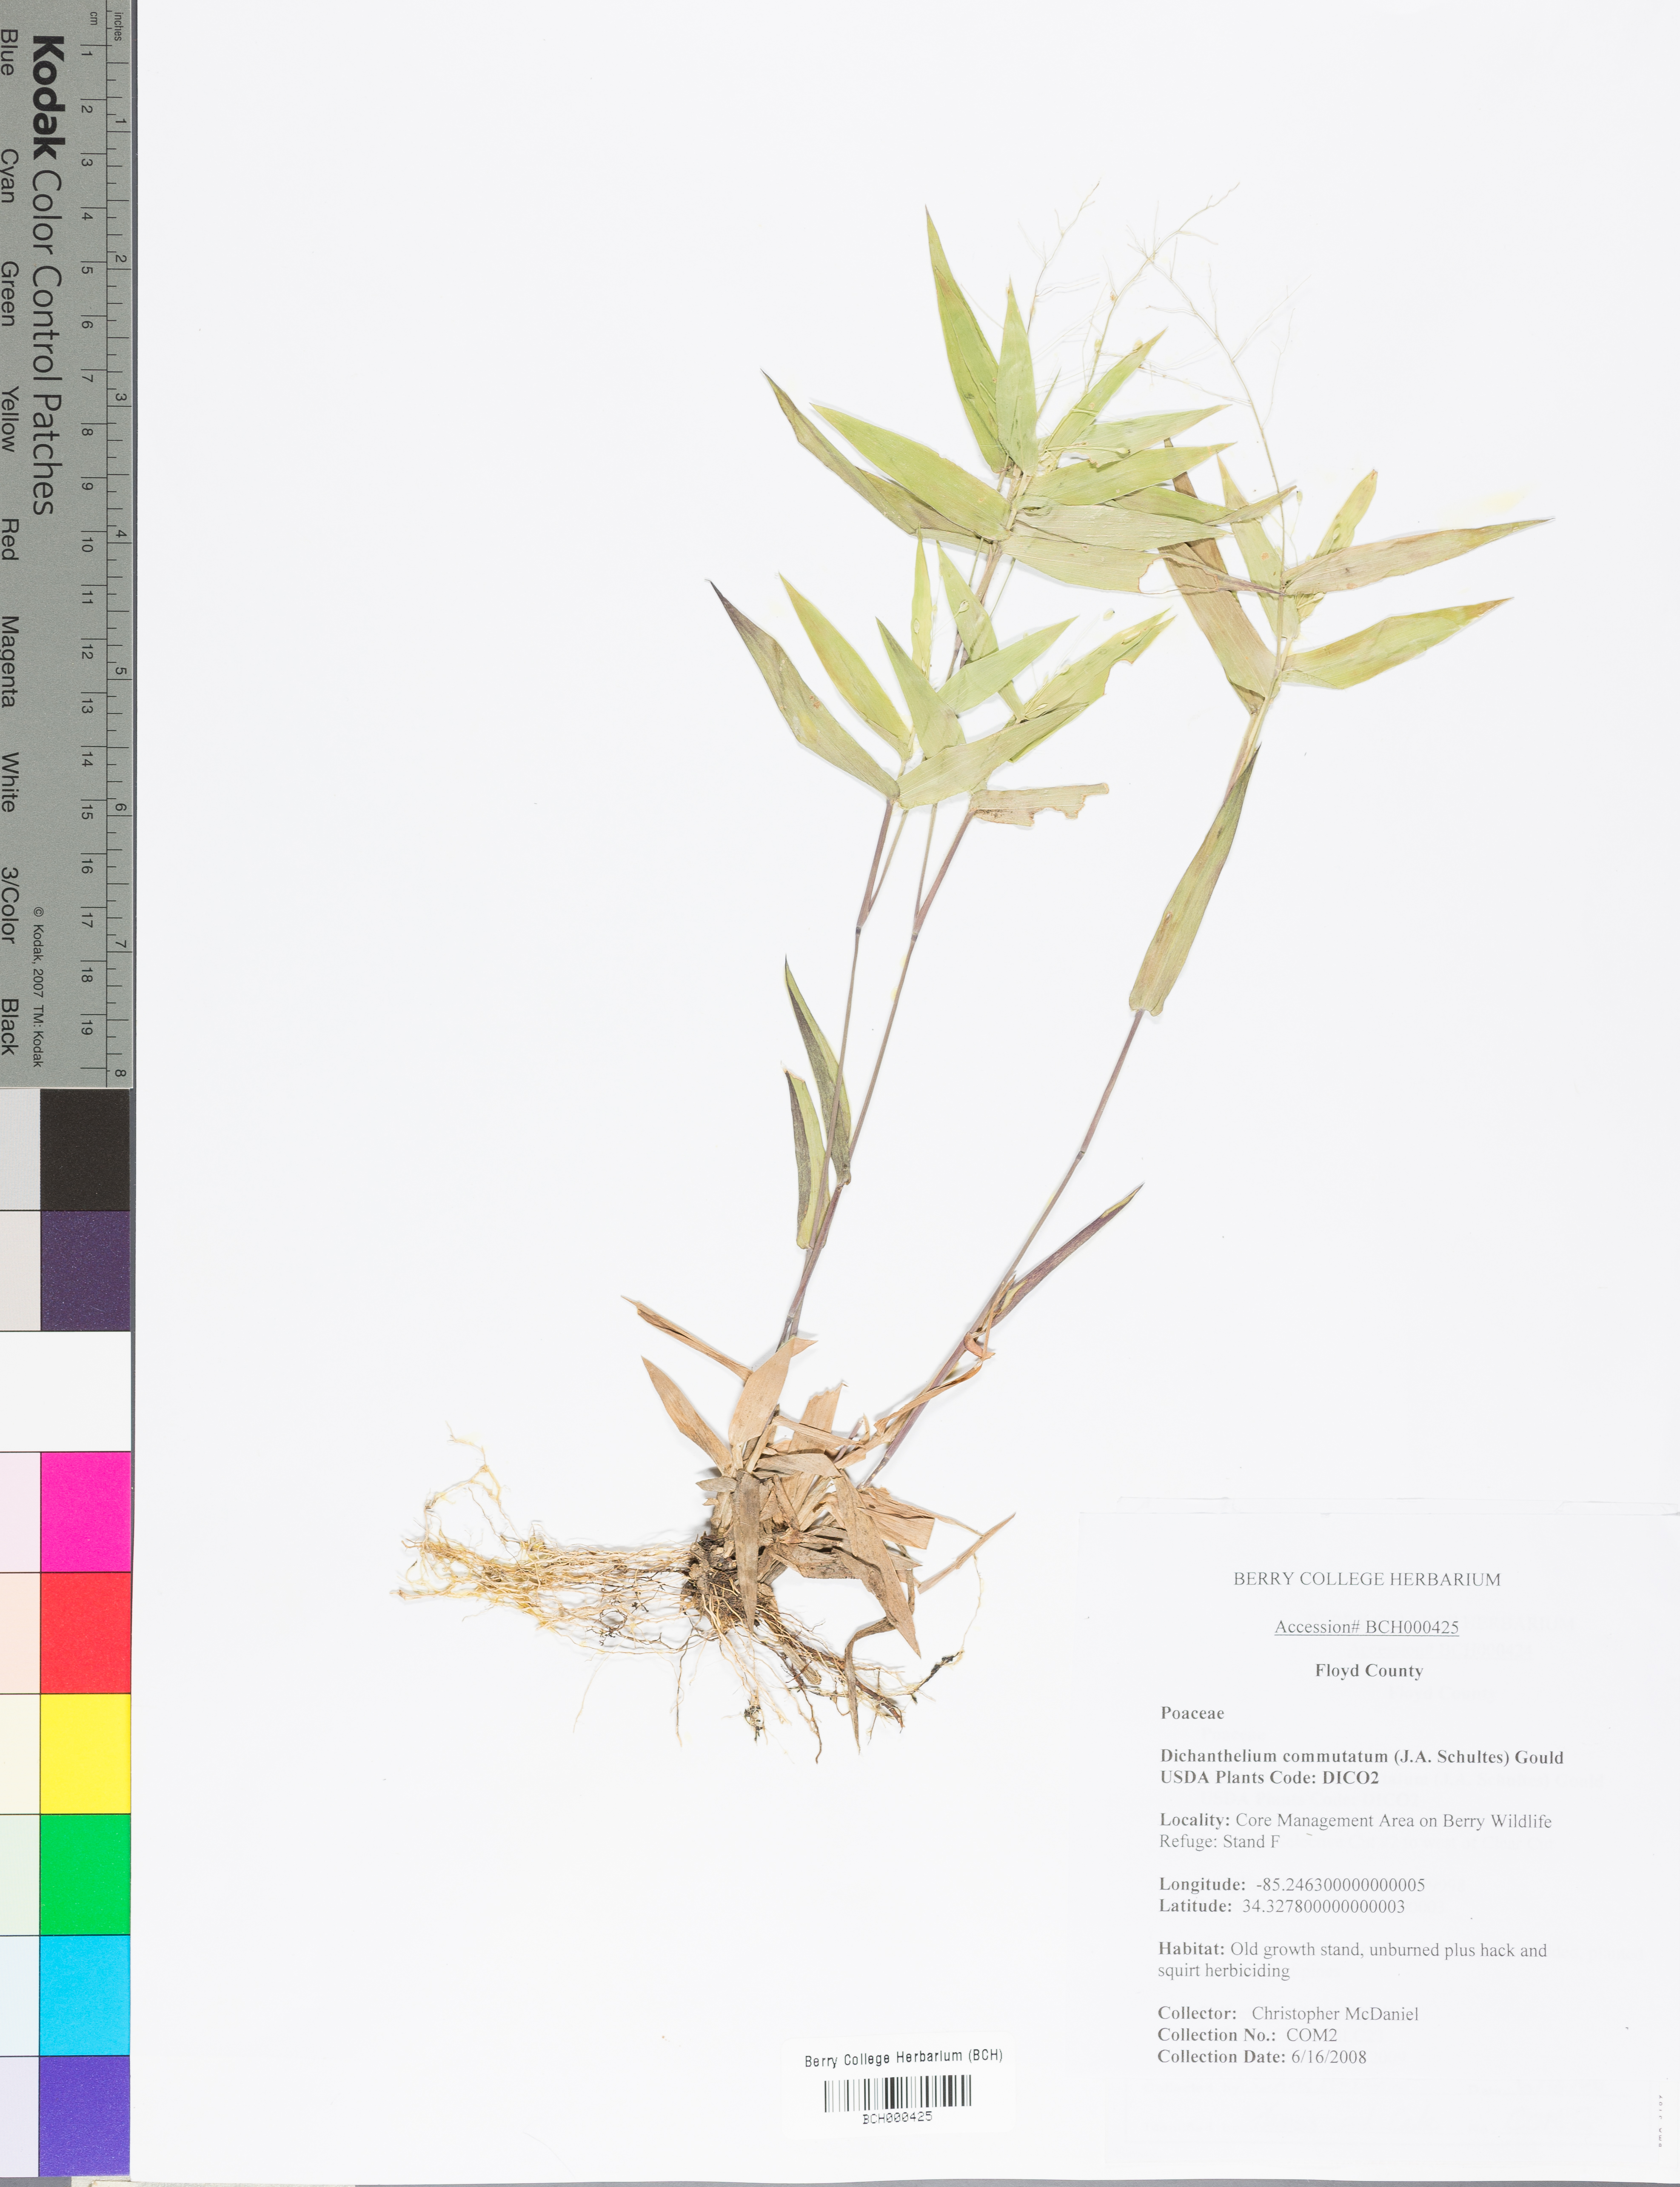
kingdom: Plantae
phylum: Tracheophyta
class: Liliopsida
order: Poales
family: Poaceae
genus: Dichanthelium
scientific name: Dichanthelium commutatum
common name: Variable witchgrass
